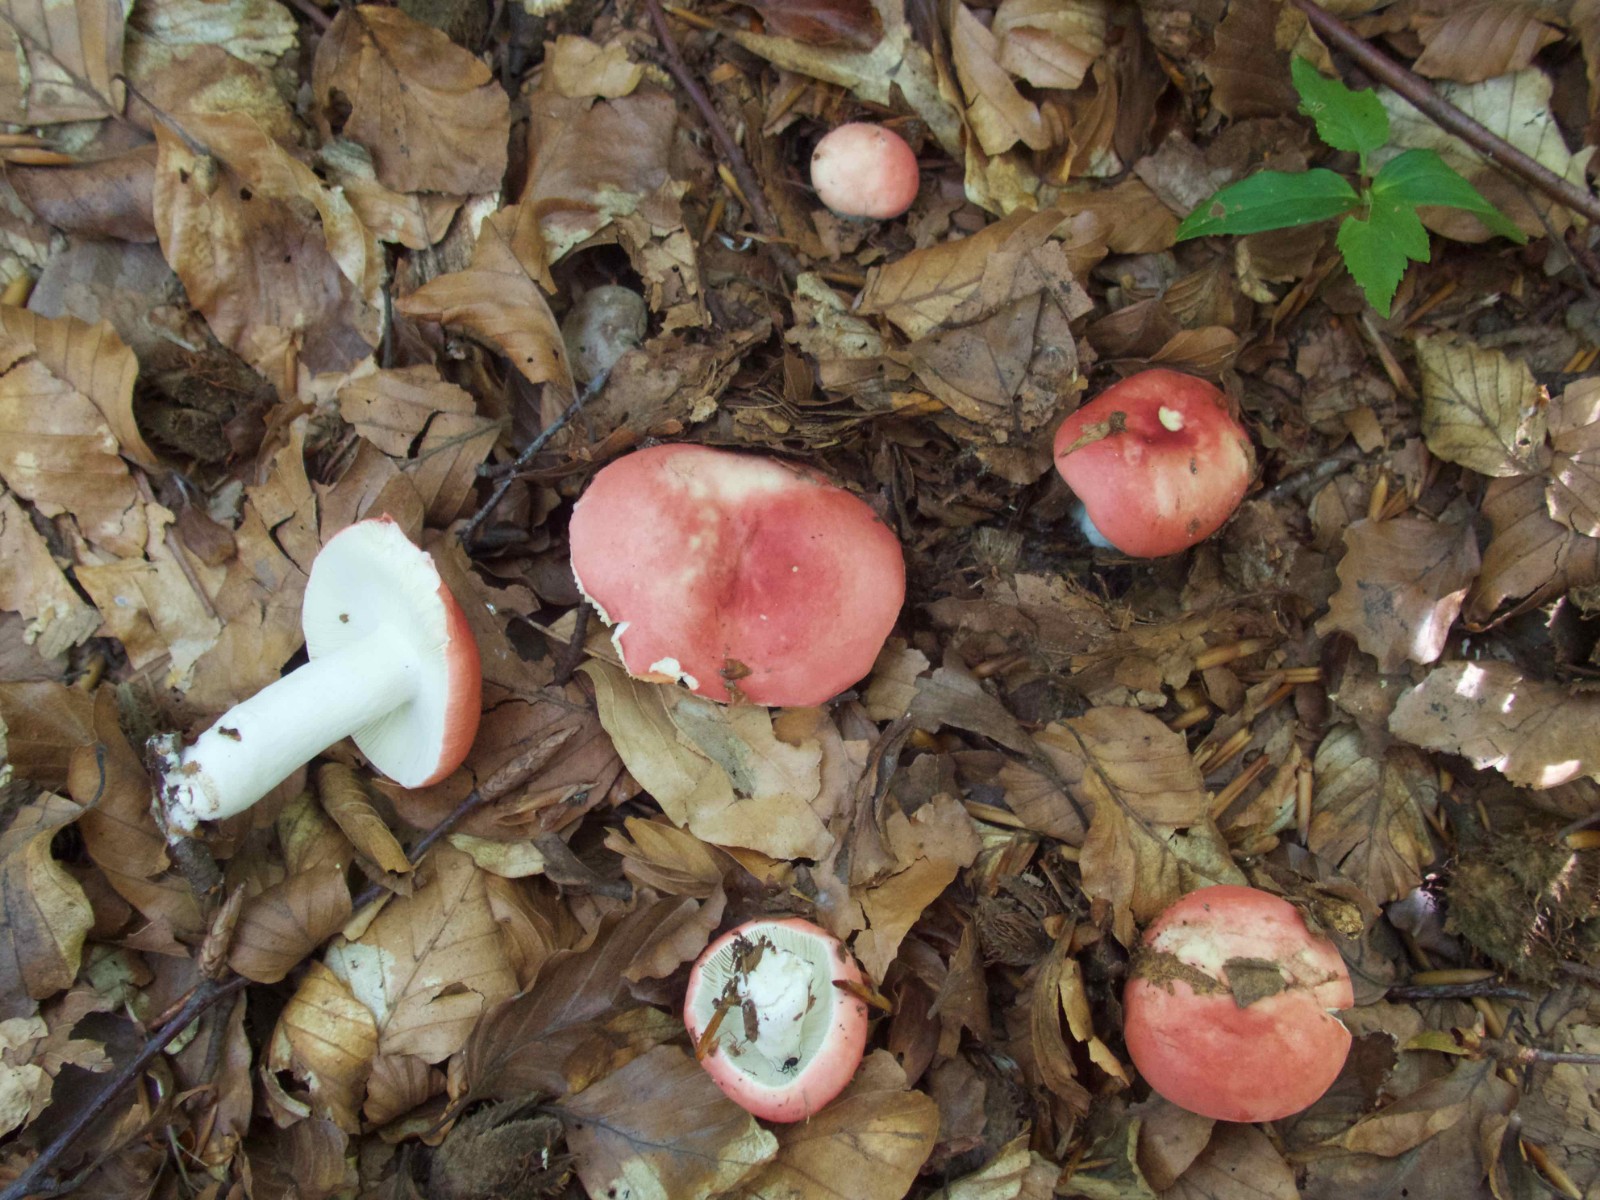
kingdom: Fungi
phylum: Basidiomycota
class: Agaricomycetes
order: Russulales
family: Russulaceae
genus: Russula
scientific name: Russula nobilis
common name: lille gift-skørhat
